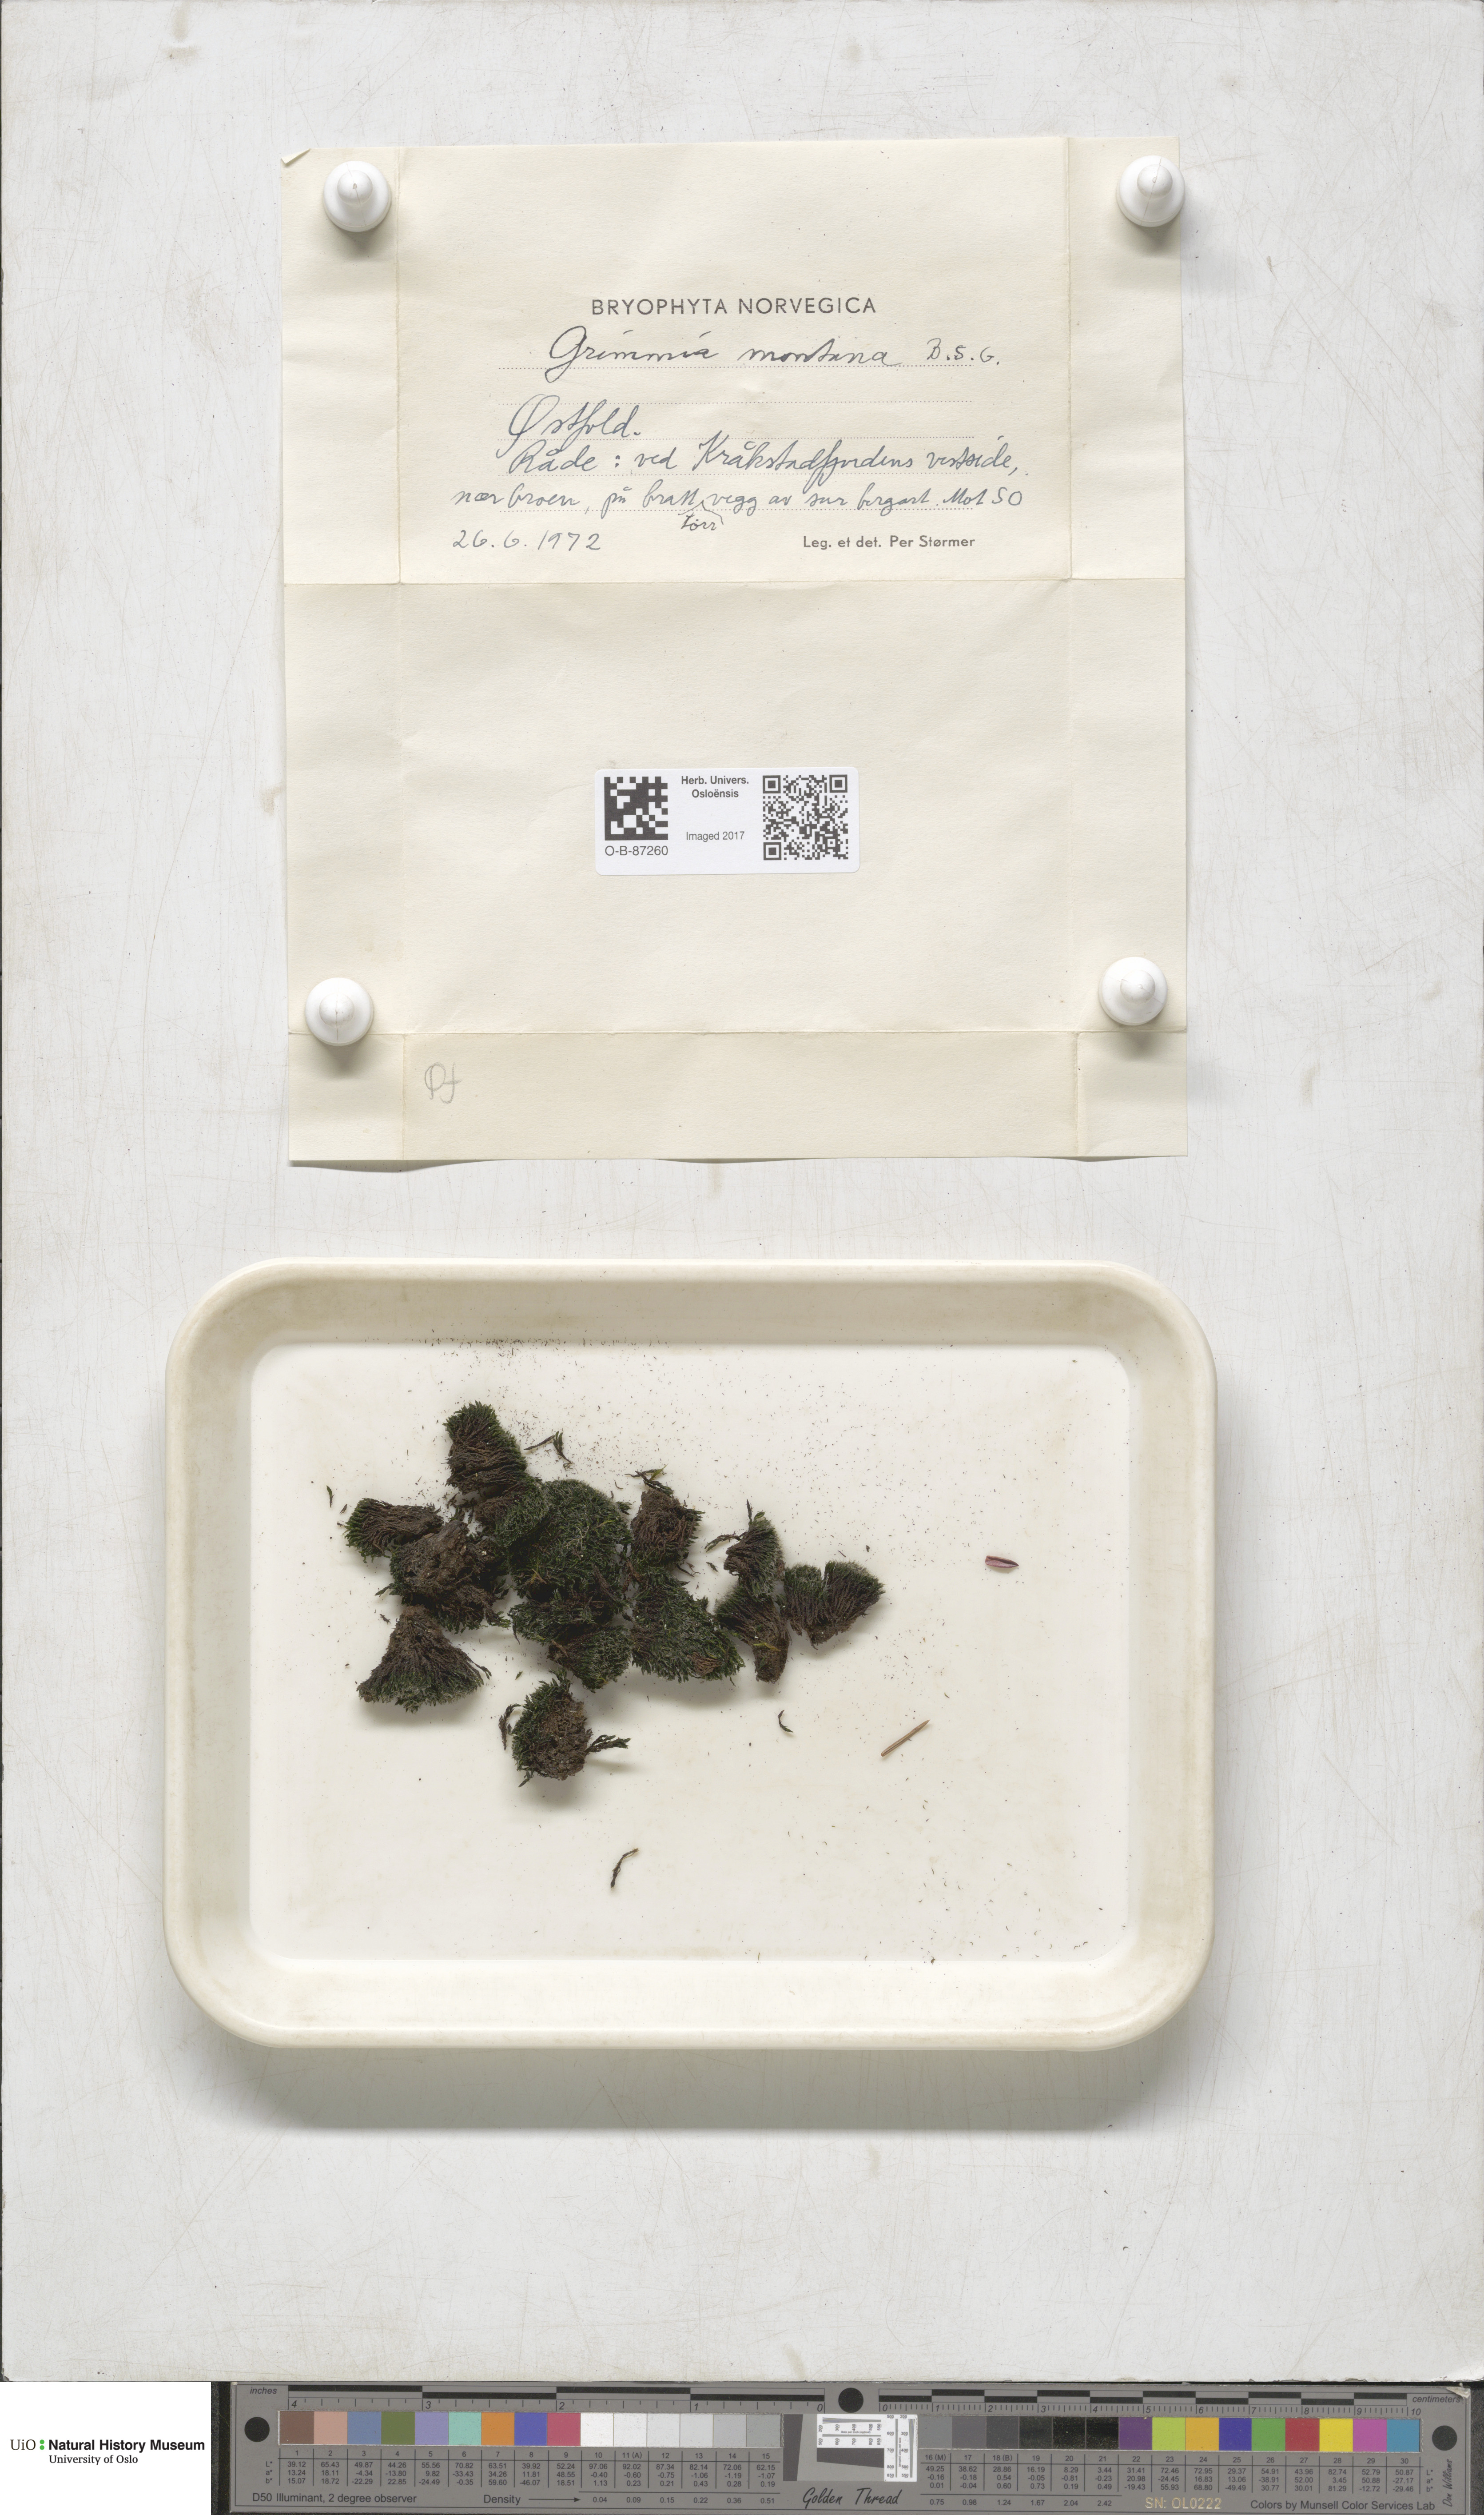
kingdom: Plantae
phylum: Bryophyta
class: Bryopsida
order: Grimmiales
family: Grimmiaceae
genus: Grimmia
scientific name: Grimmia montana
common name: Sun grimmia
